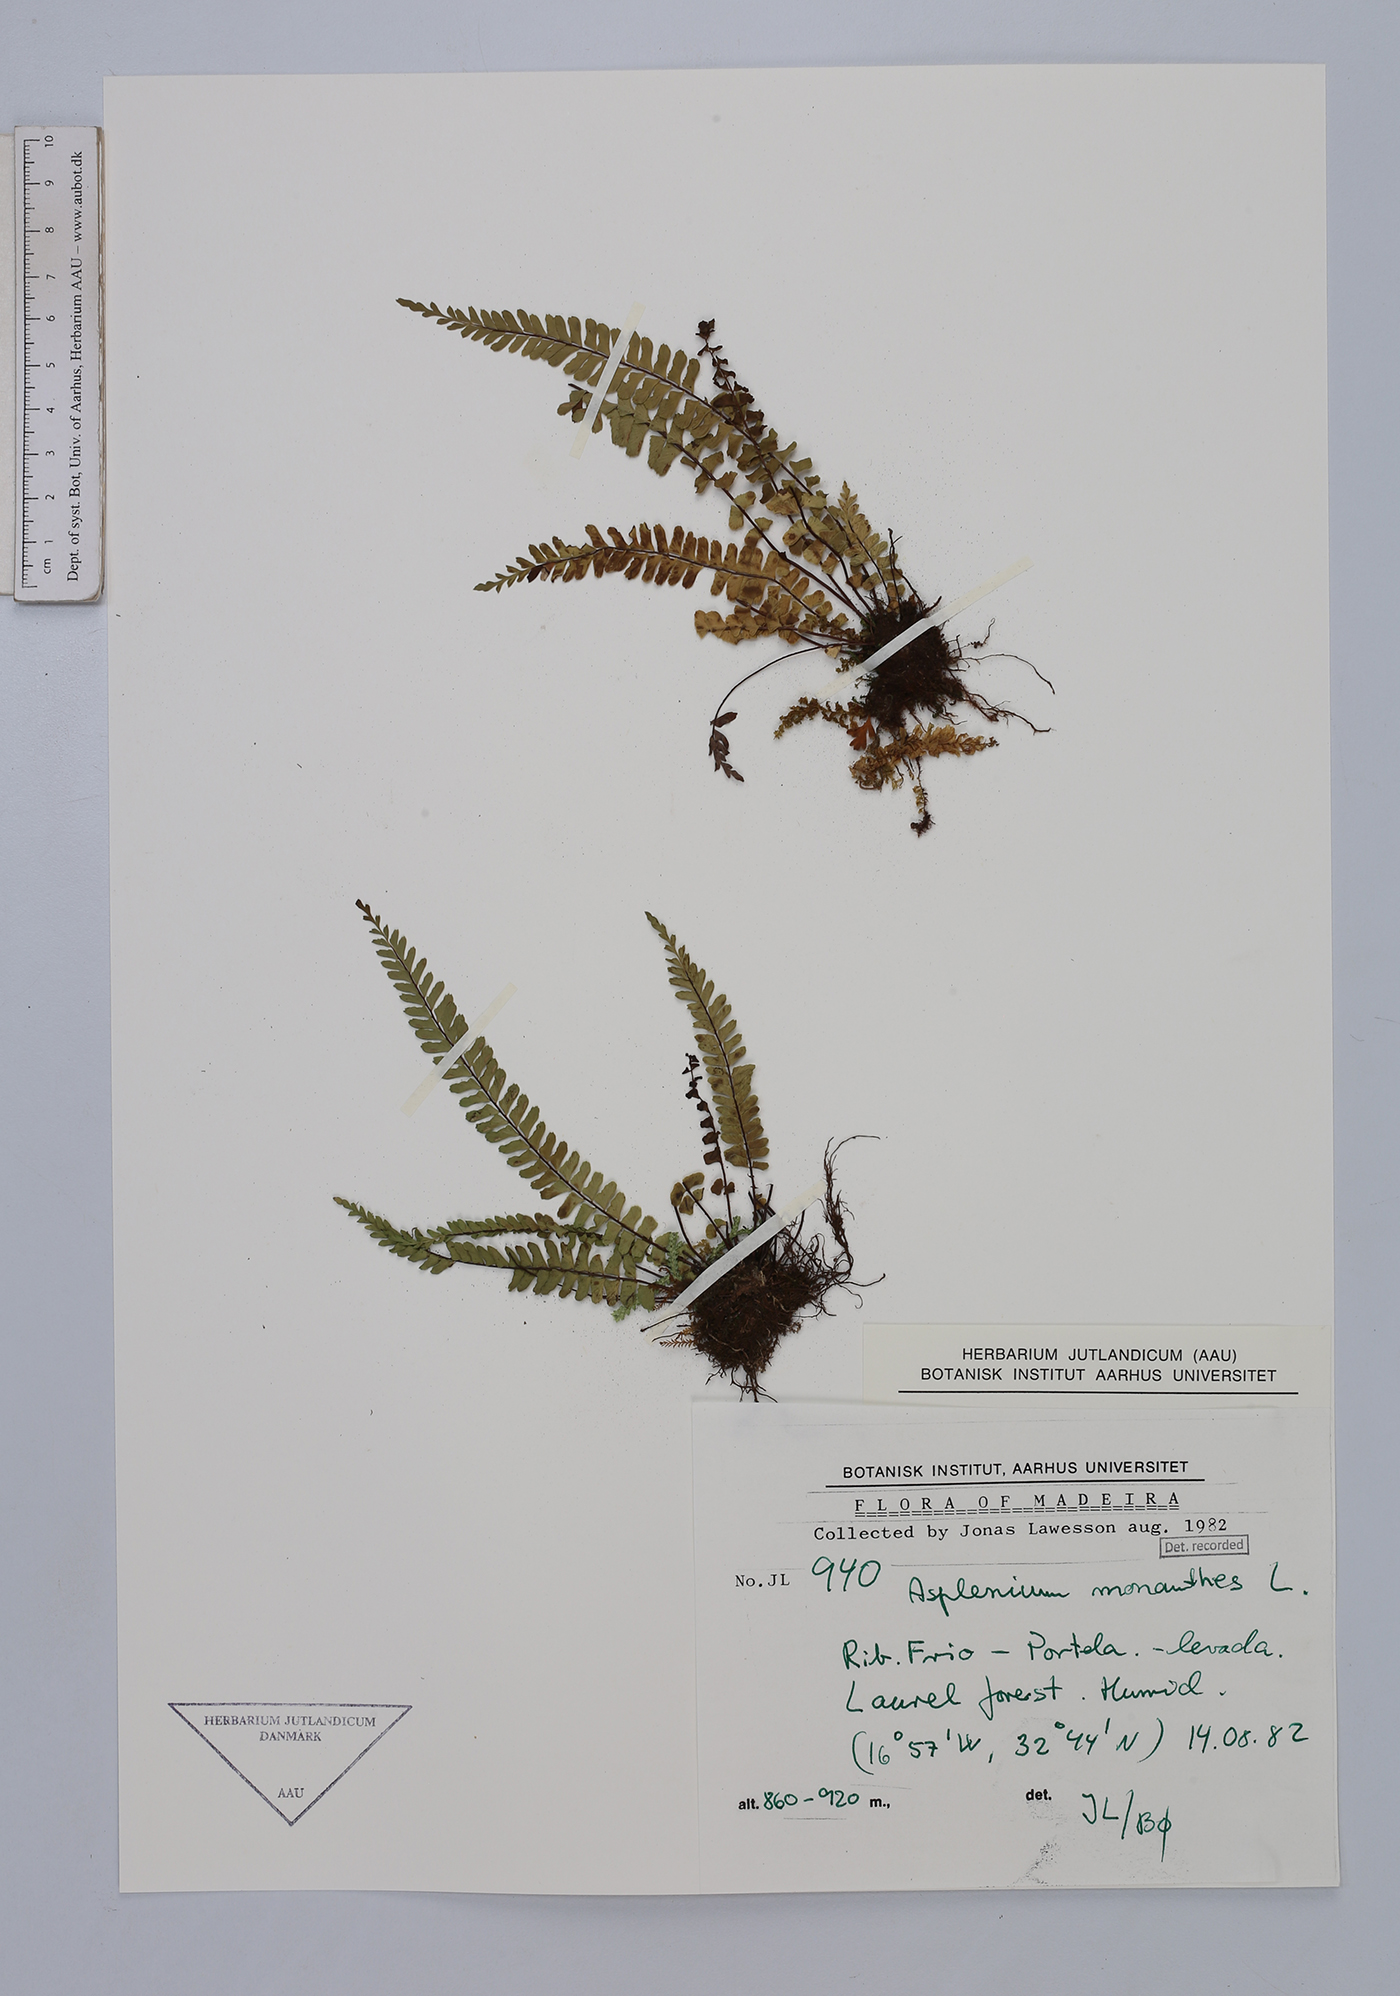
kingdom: Plantae
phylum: Tracheophyta
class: Polypodiopsida
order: Polypodiales
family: Aspleniaceae
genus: Asplenium
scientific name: Asplenium monanthes
